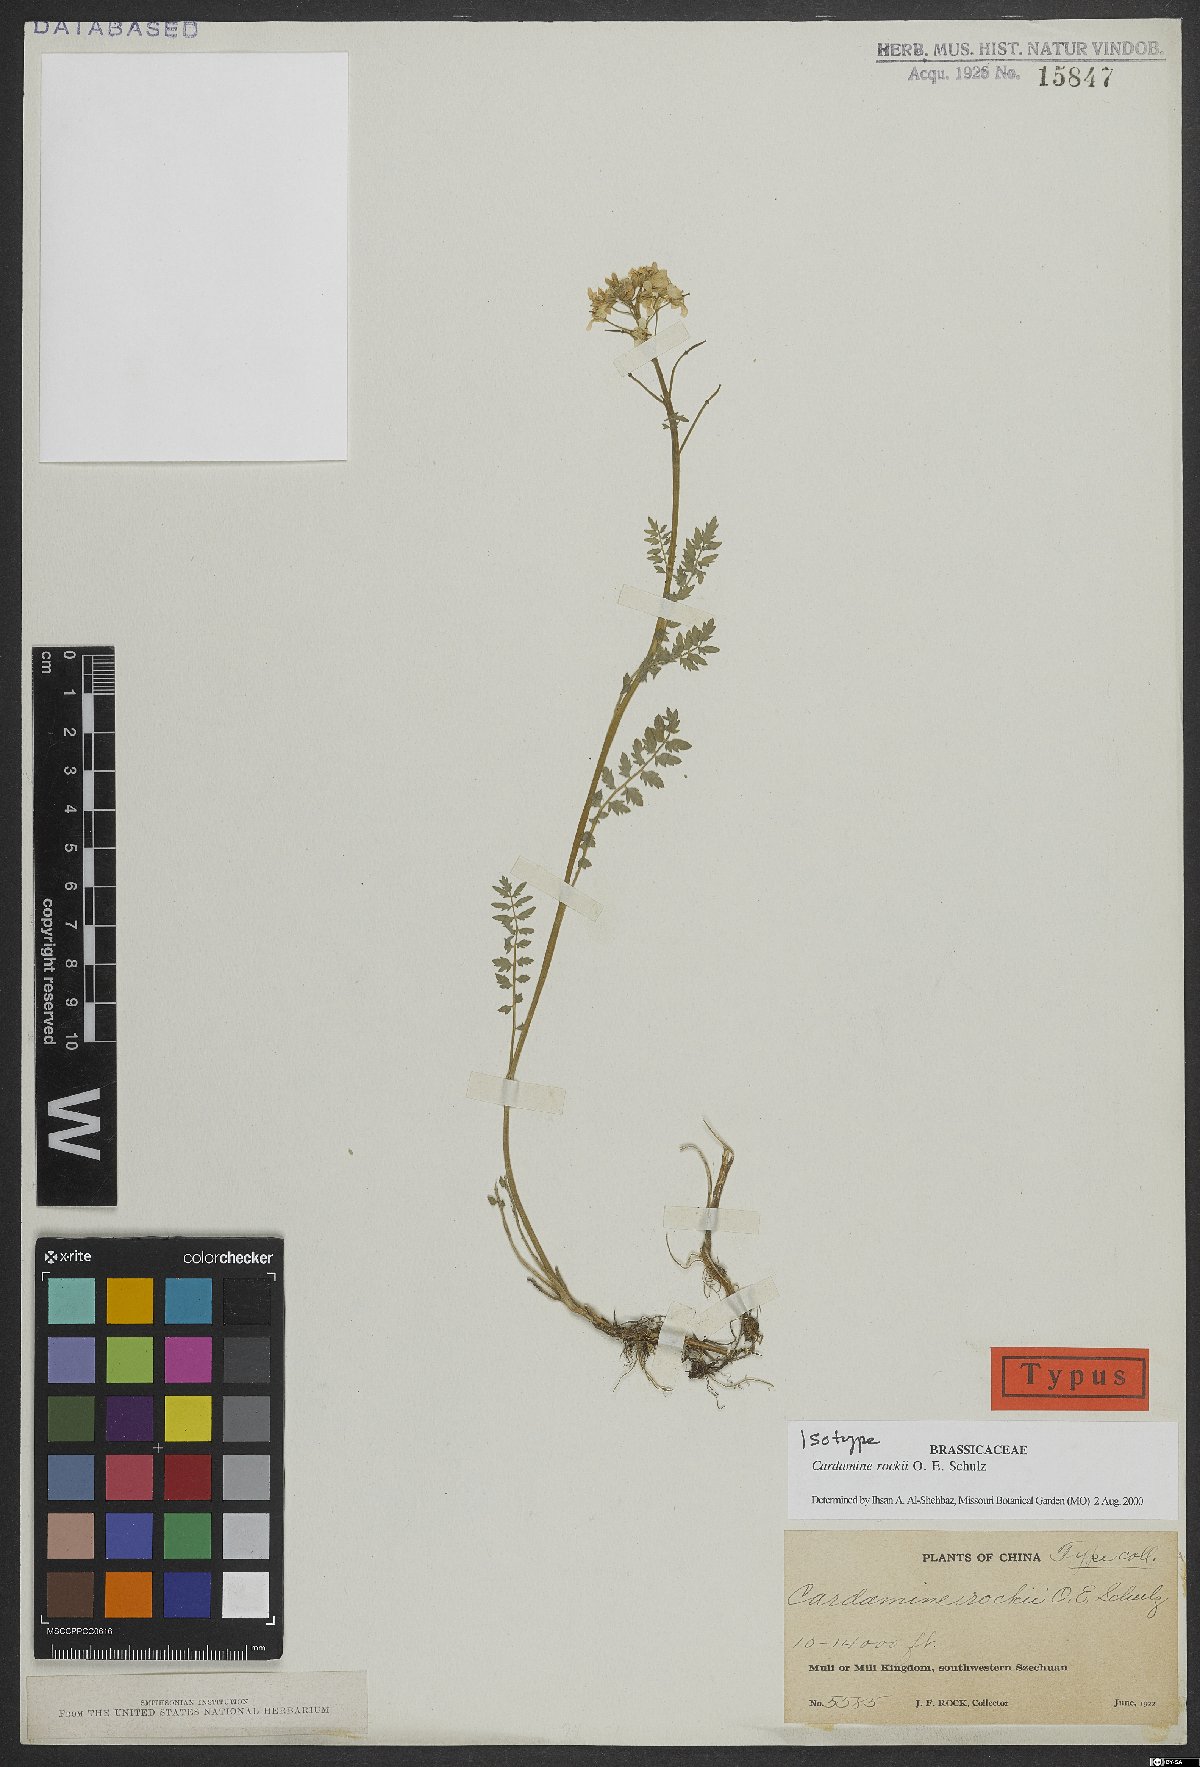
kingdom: Plantae
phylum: Tracheophyta
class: Magnoliopsida
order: Brassicales
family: Brassicaceae
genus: Cardamine
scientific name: Cardamine rockii
